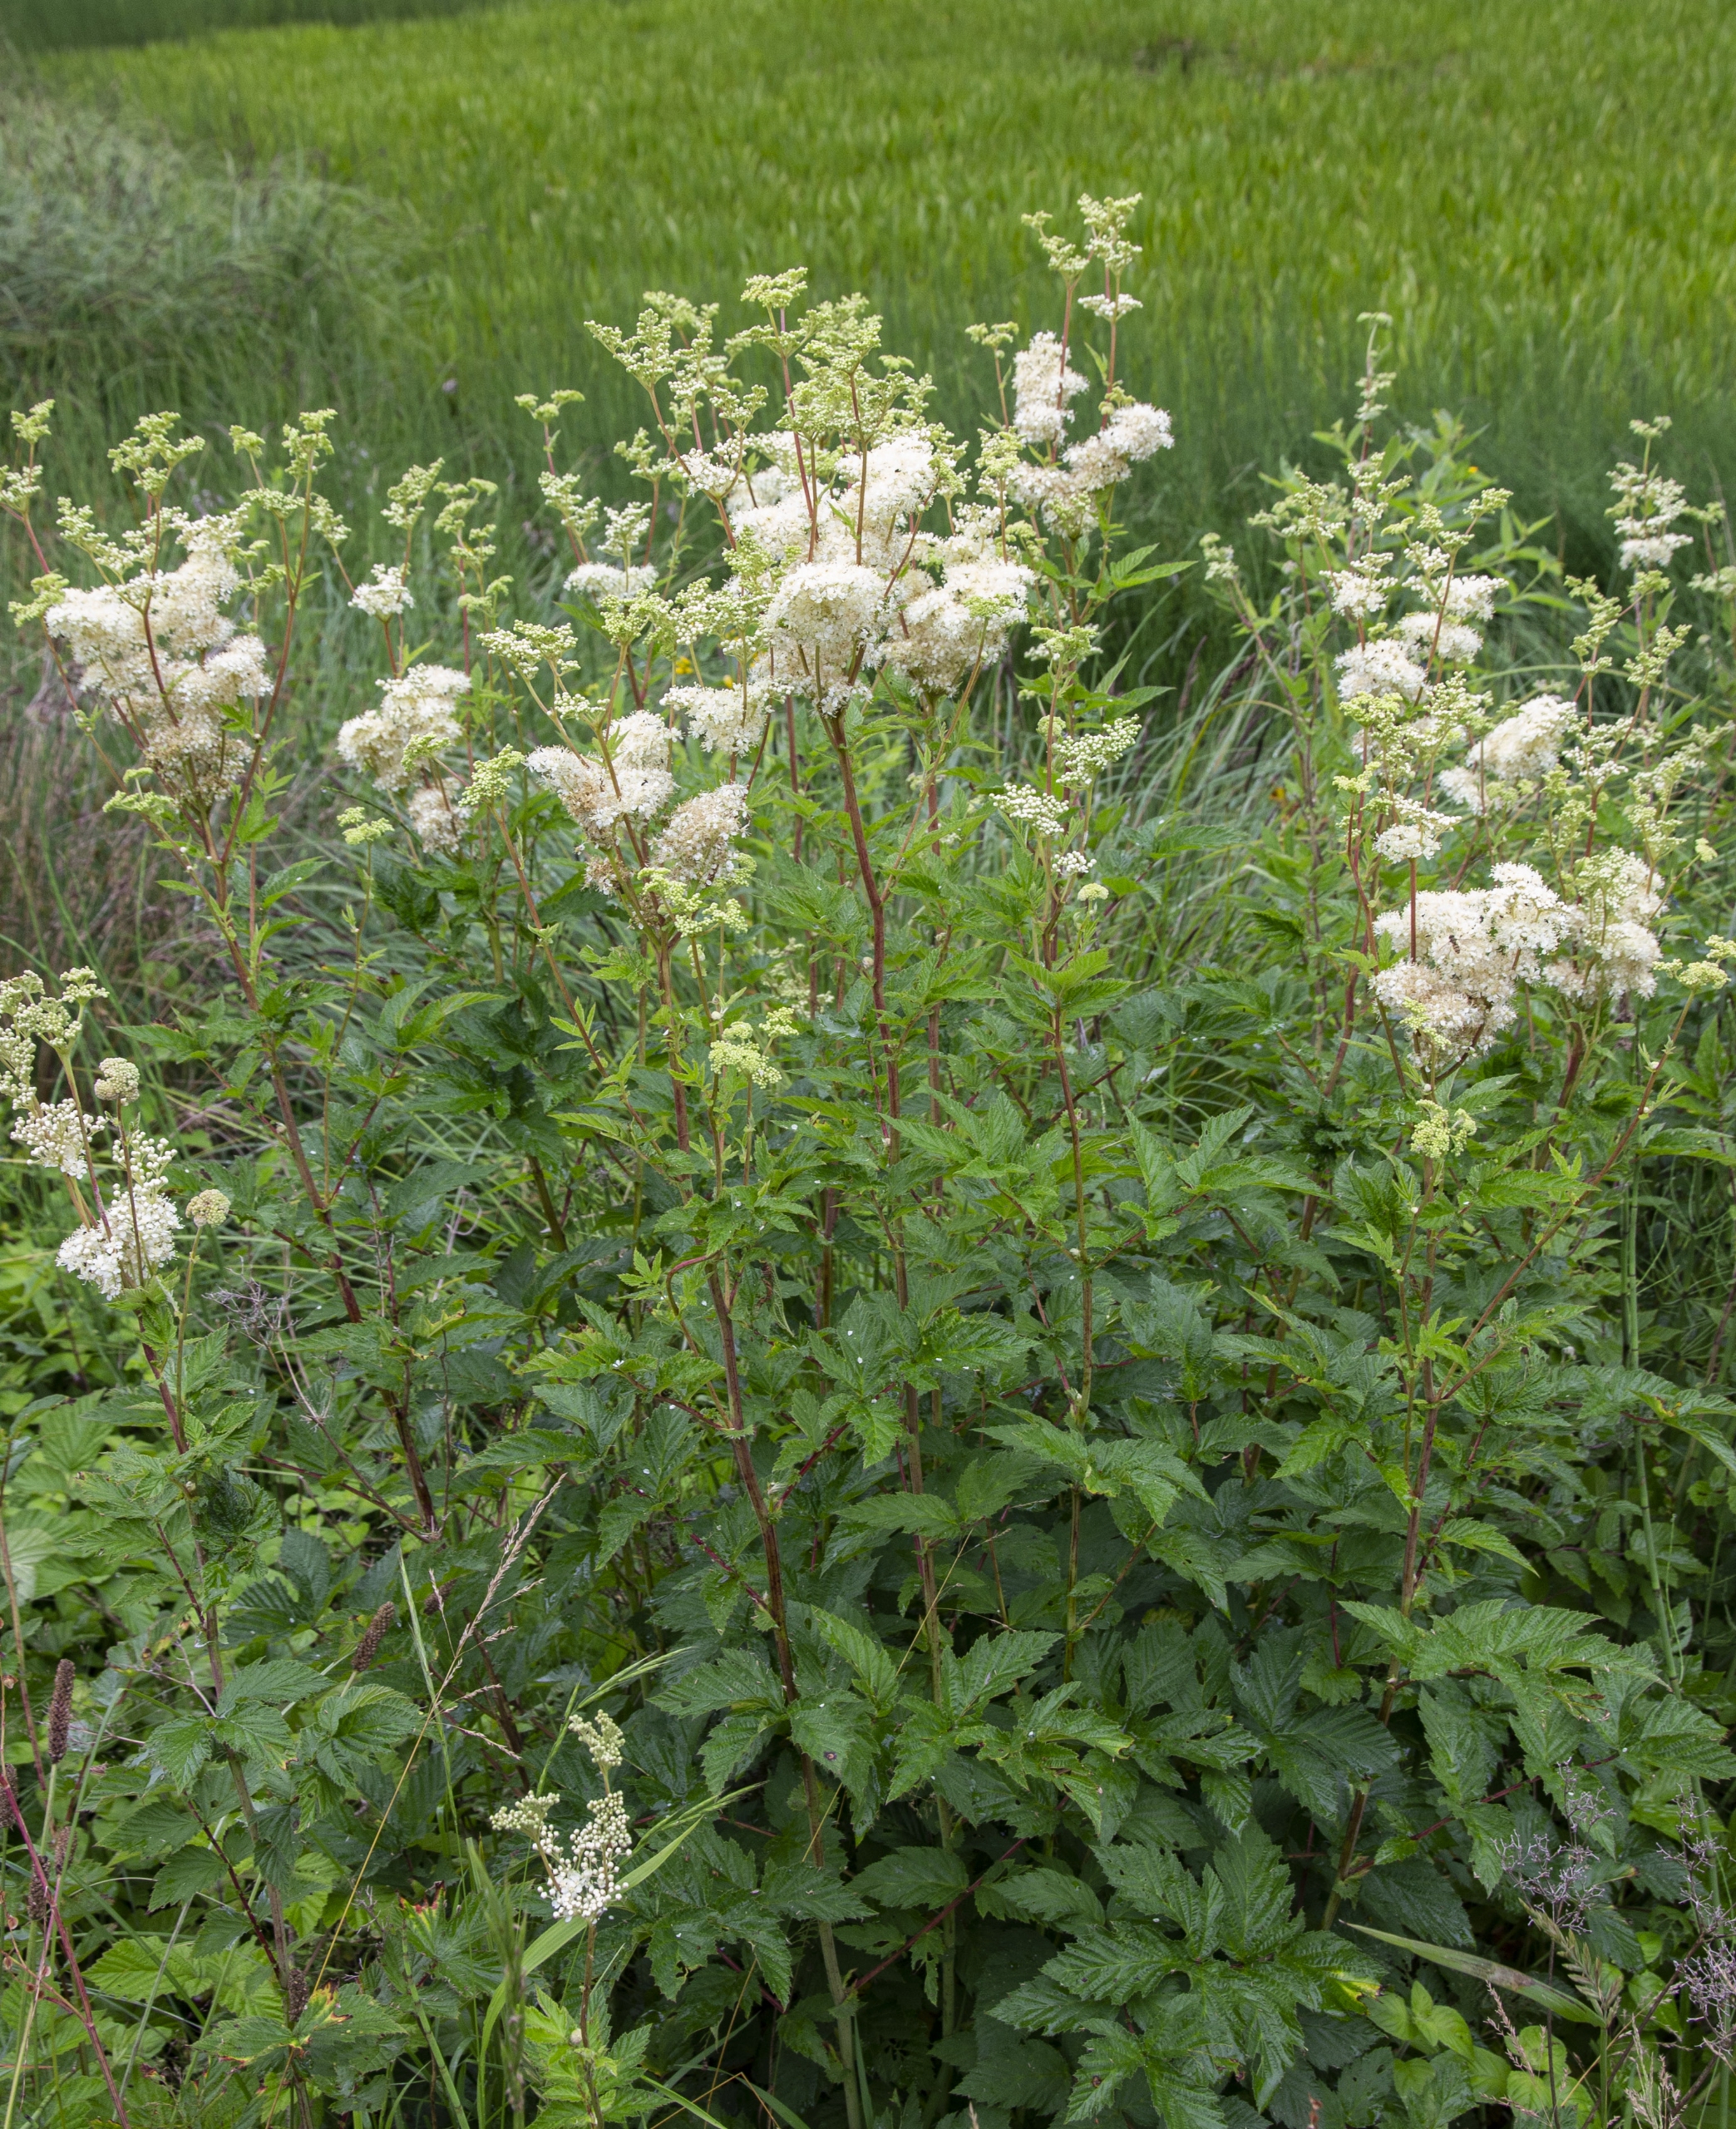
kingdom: Plantae
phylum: Tracheophyta
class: Magnoliopsida
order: Rosales
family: Rosaceae
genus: Filipendula
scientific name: Filipendula ulmaria
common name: Almindelig mjødurt
